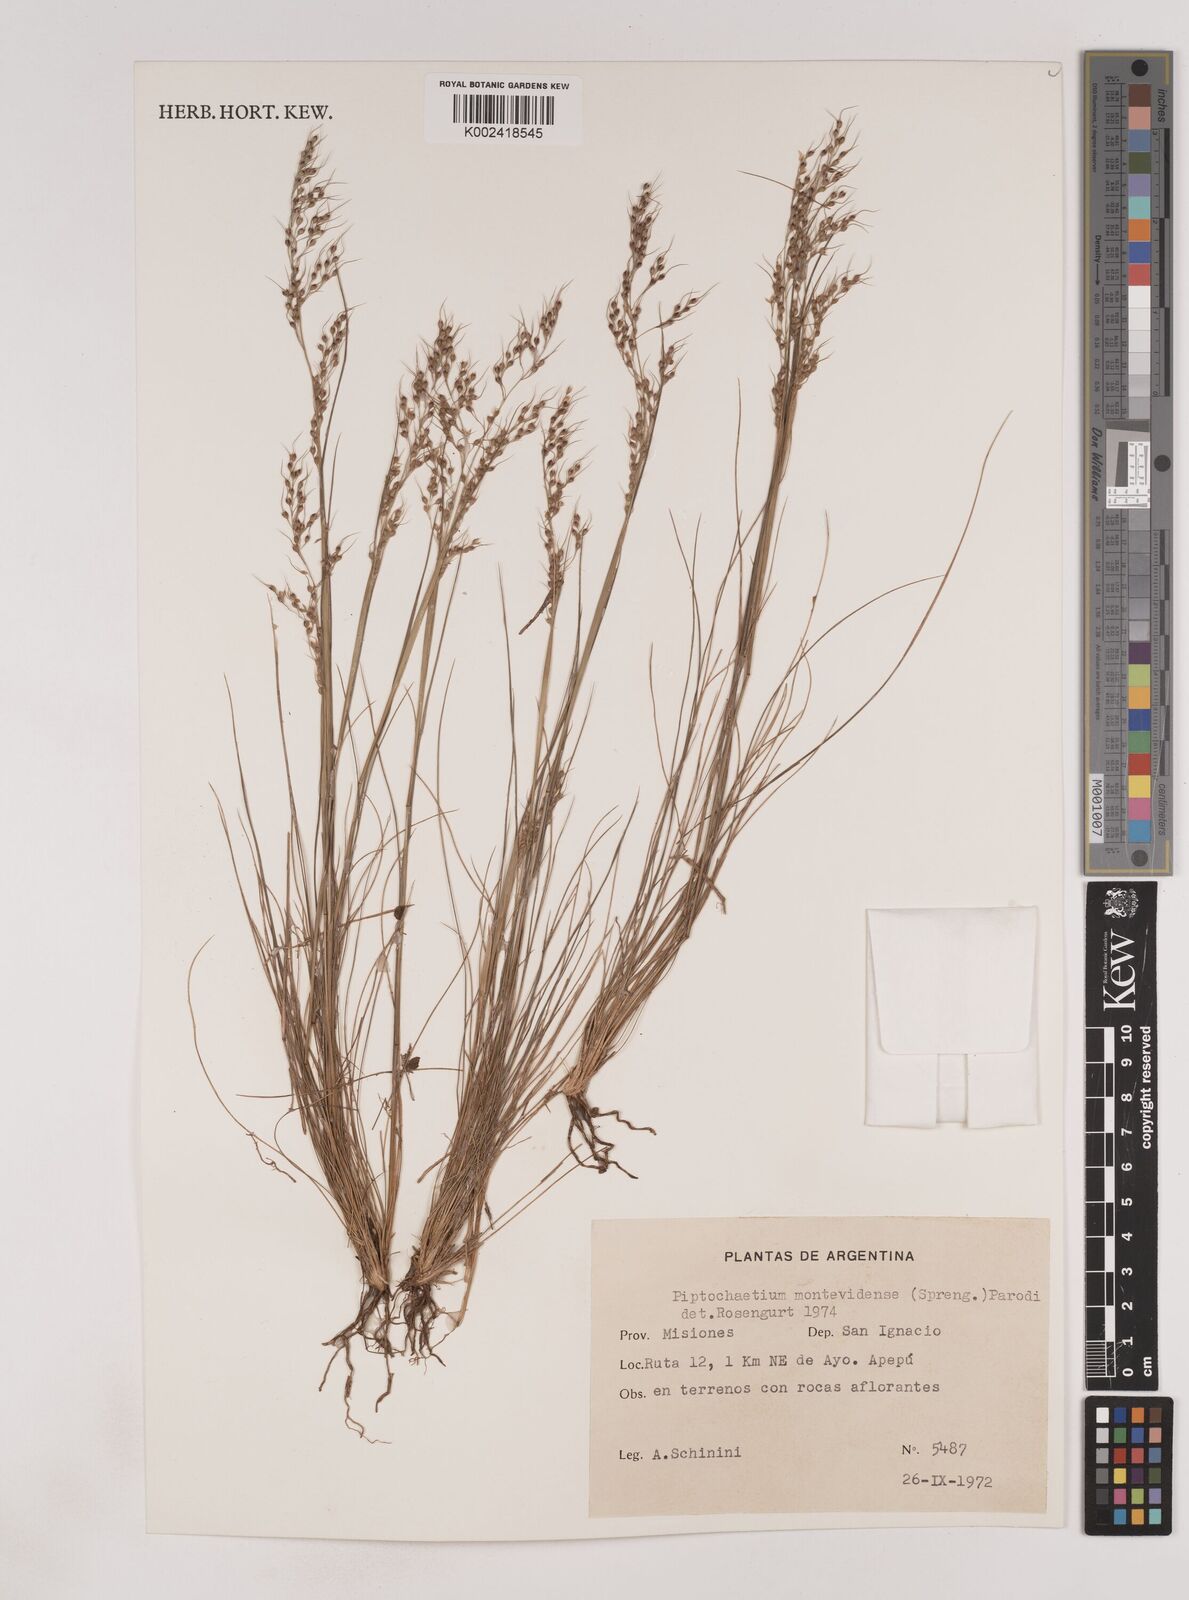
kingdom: Plantae
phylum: Tracheophyta
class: Liliopsida
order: Poales
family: Poaceae
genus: Piptochaetium
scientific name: Piptochaetium montevidense
